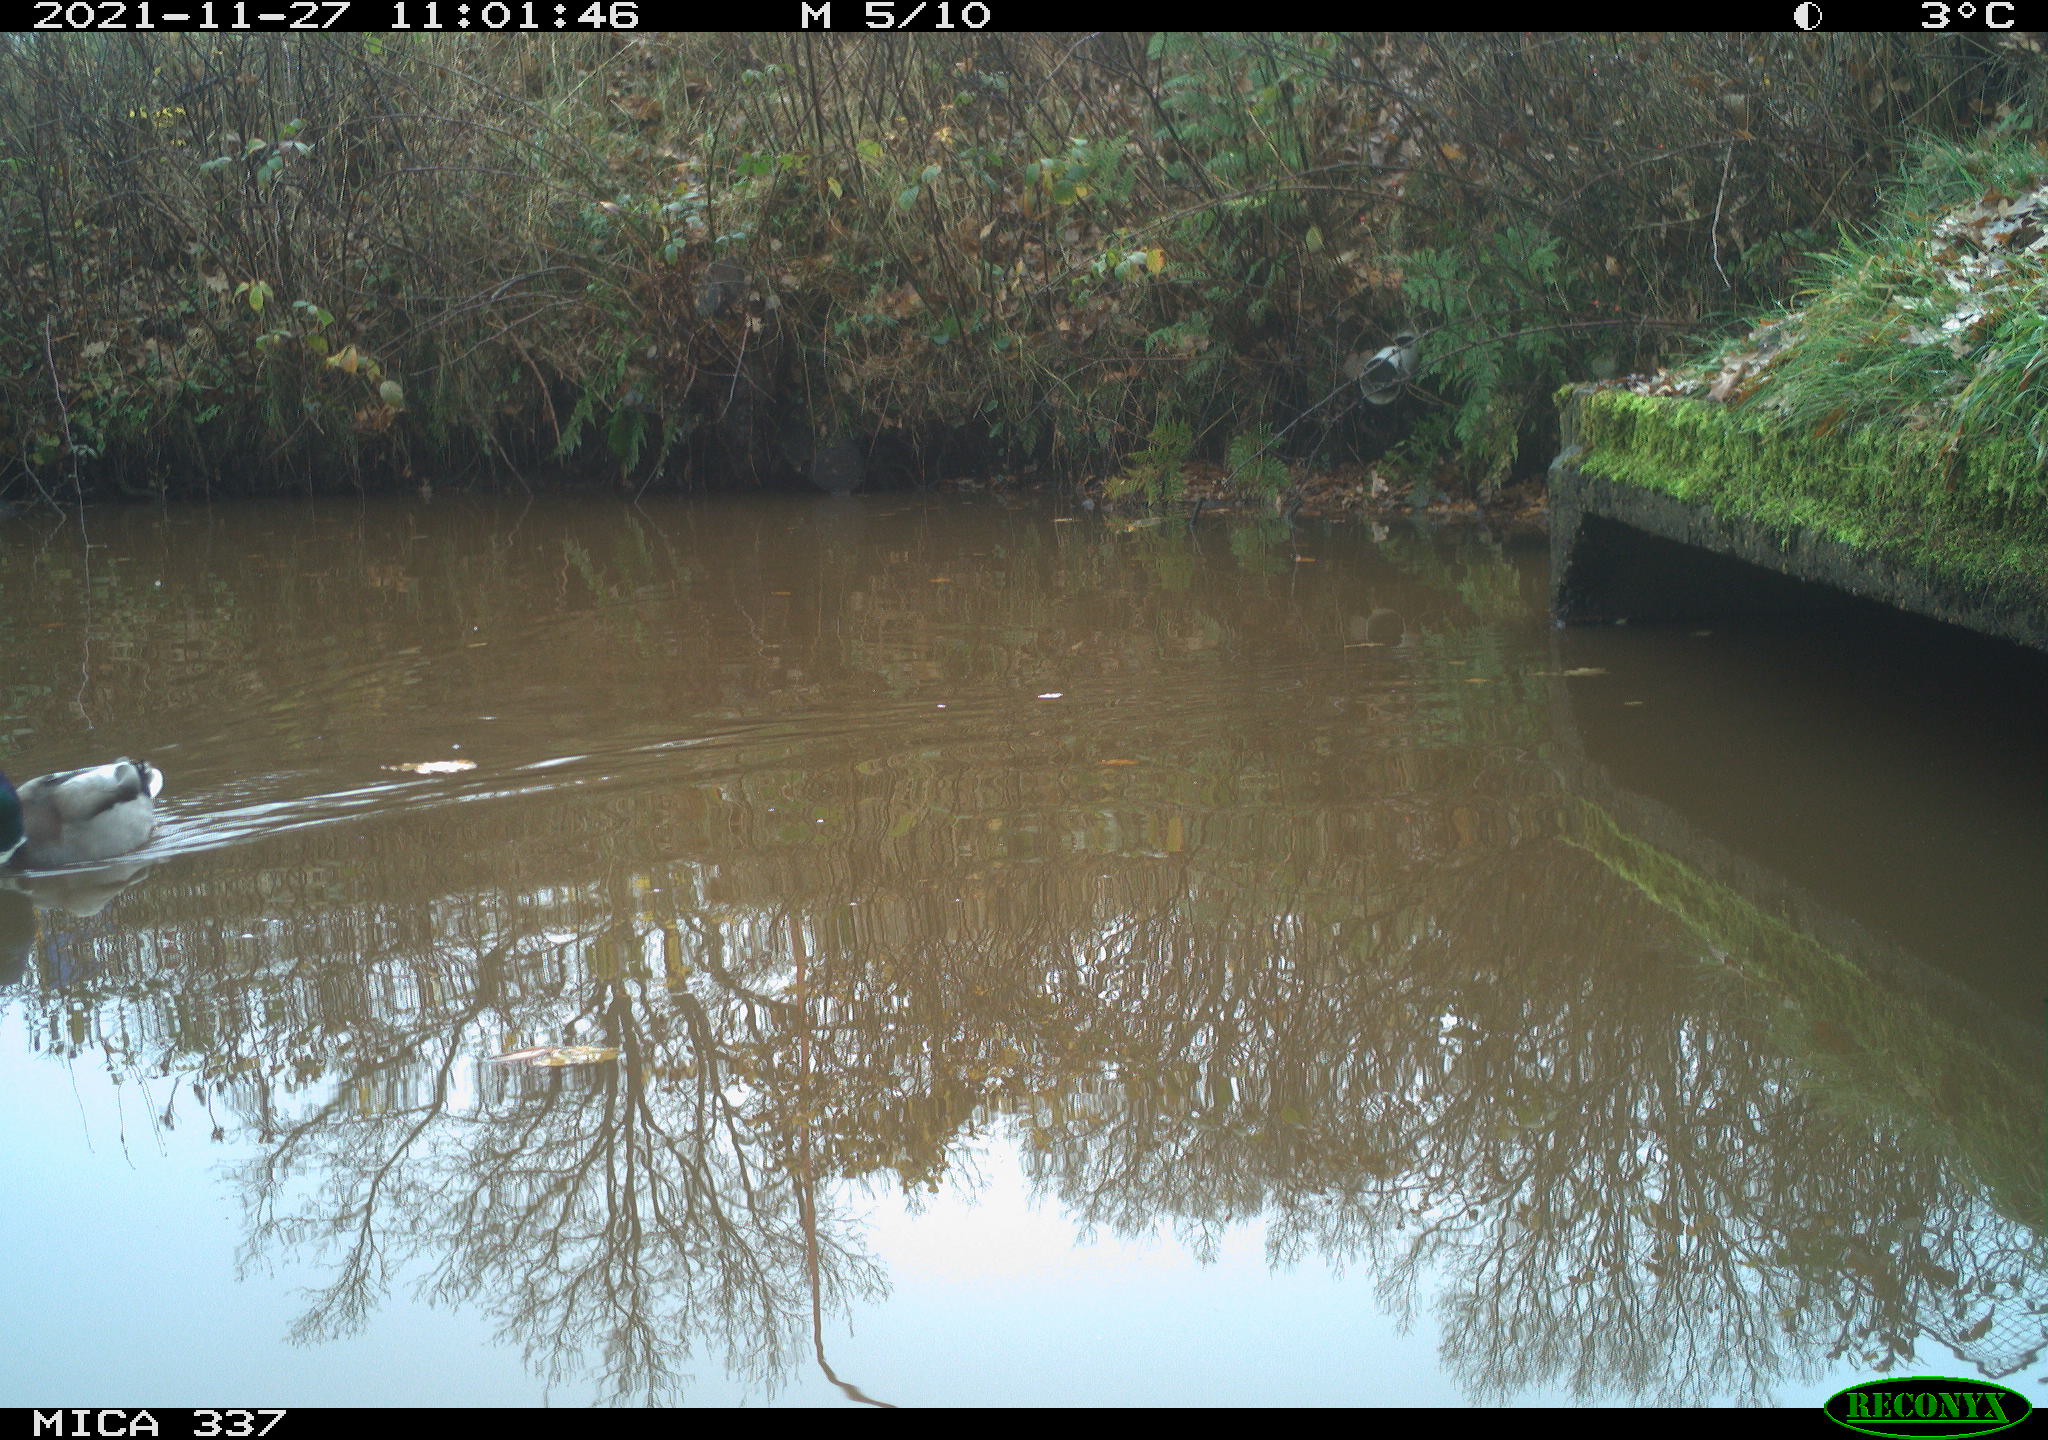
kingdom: Animalia
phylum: Chordata
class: Aves
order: Anseriformes
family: Anatidae
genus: Anas
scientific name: Anas platyrhynchos
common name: Mallard
